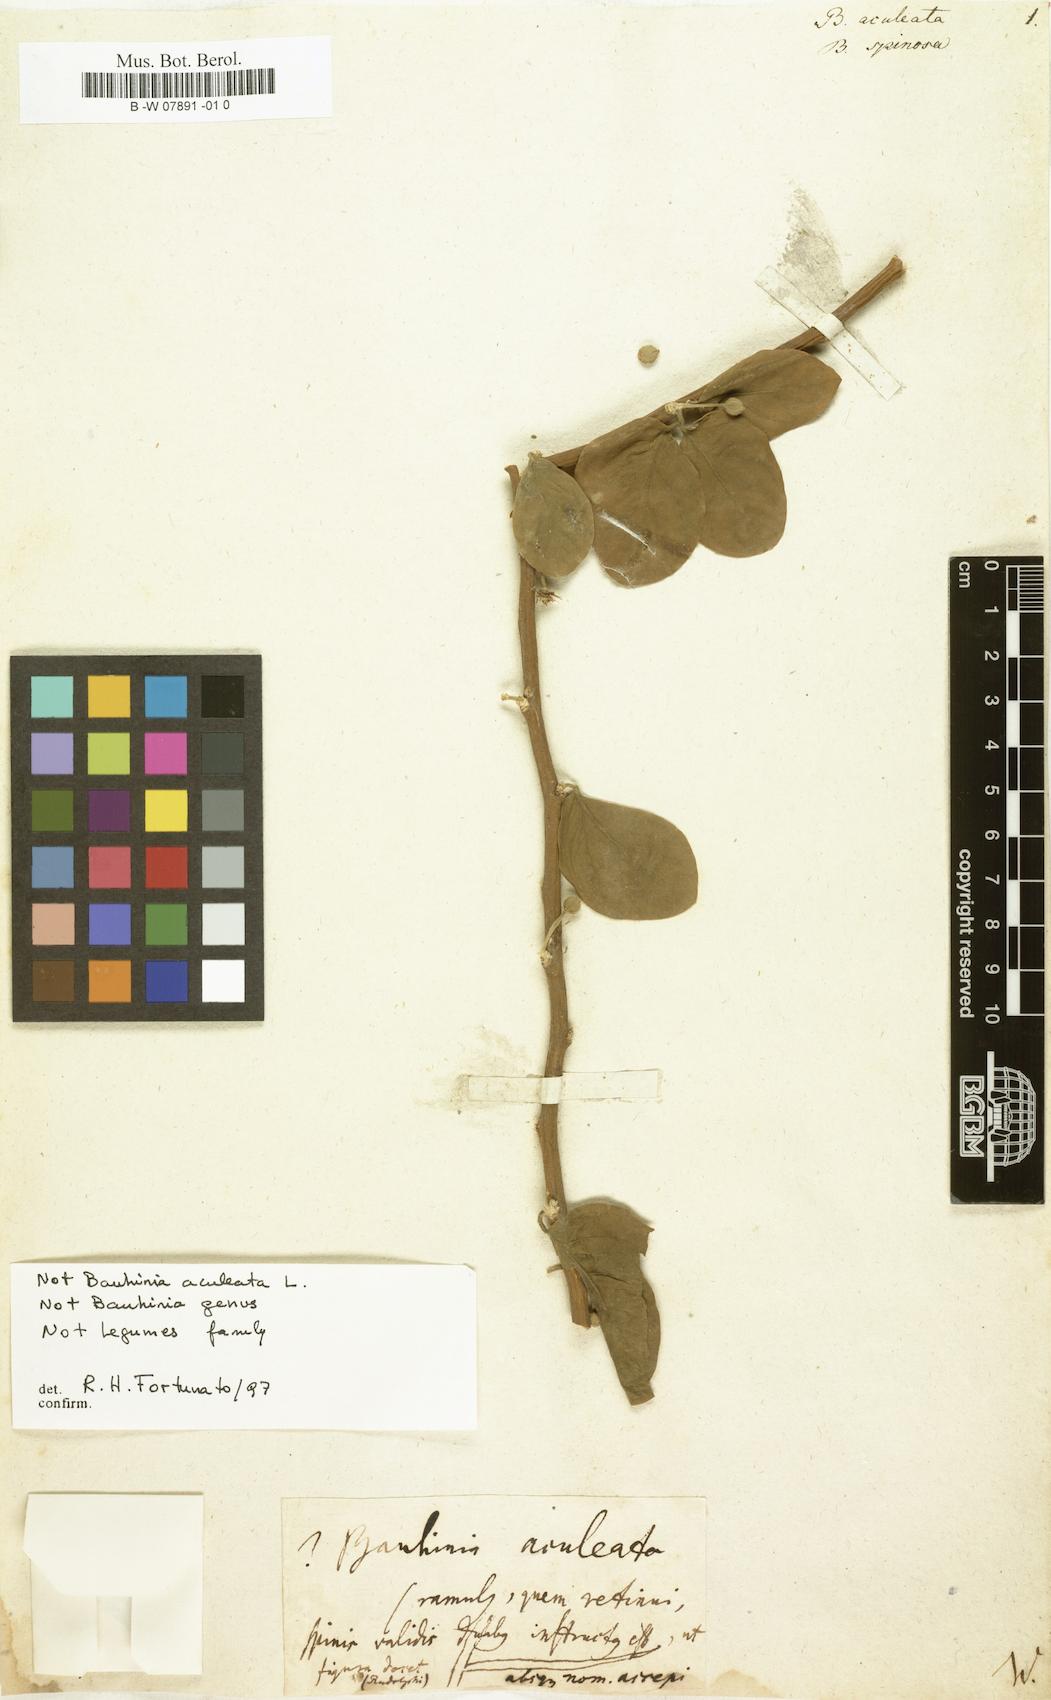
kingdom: Plantae
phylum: Tracheophyta
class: Magnoliopsida
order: Fabales
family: Fabaceae
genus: Bauhinia
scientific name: Bauhinia pauletia
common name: Railway-fence bauhinia
